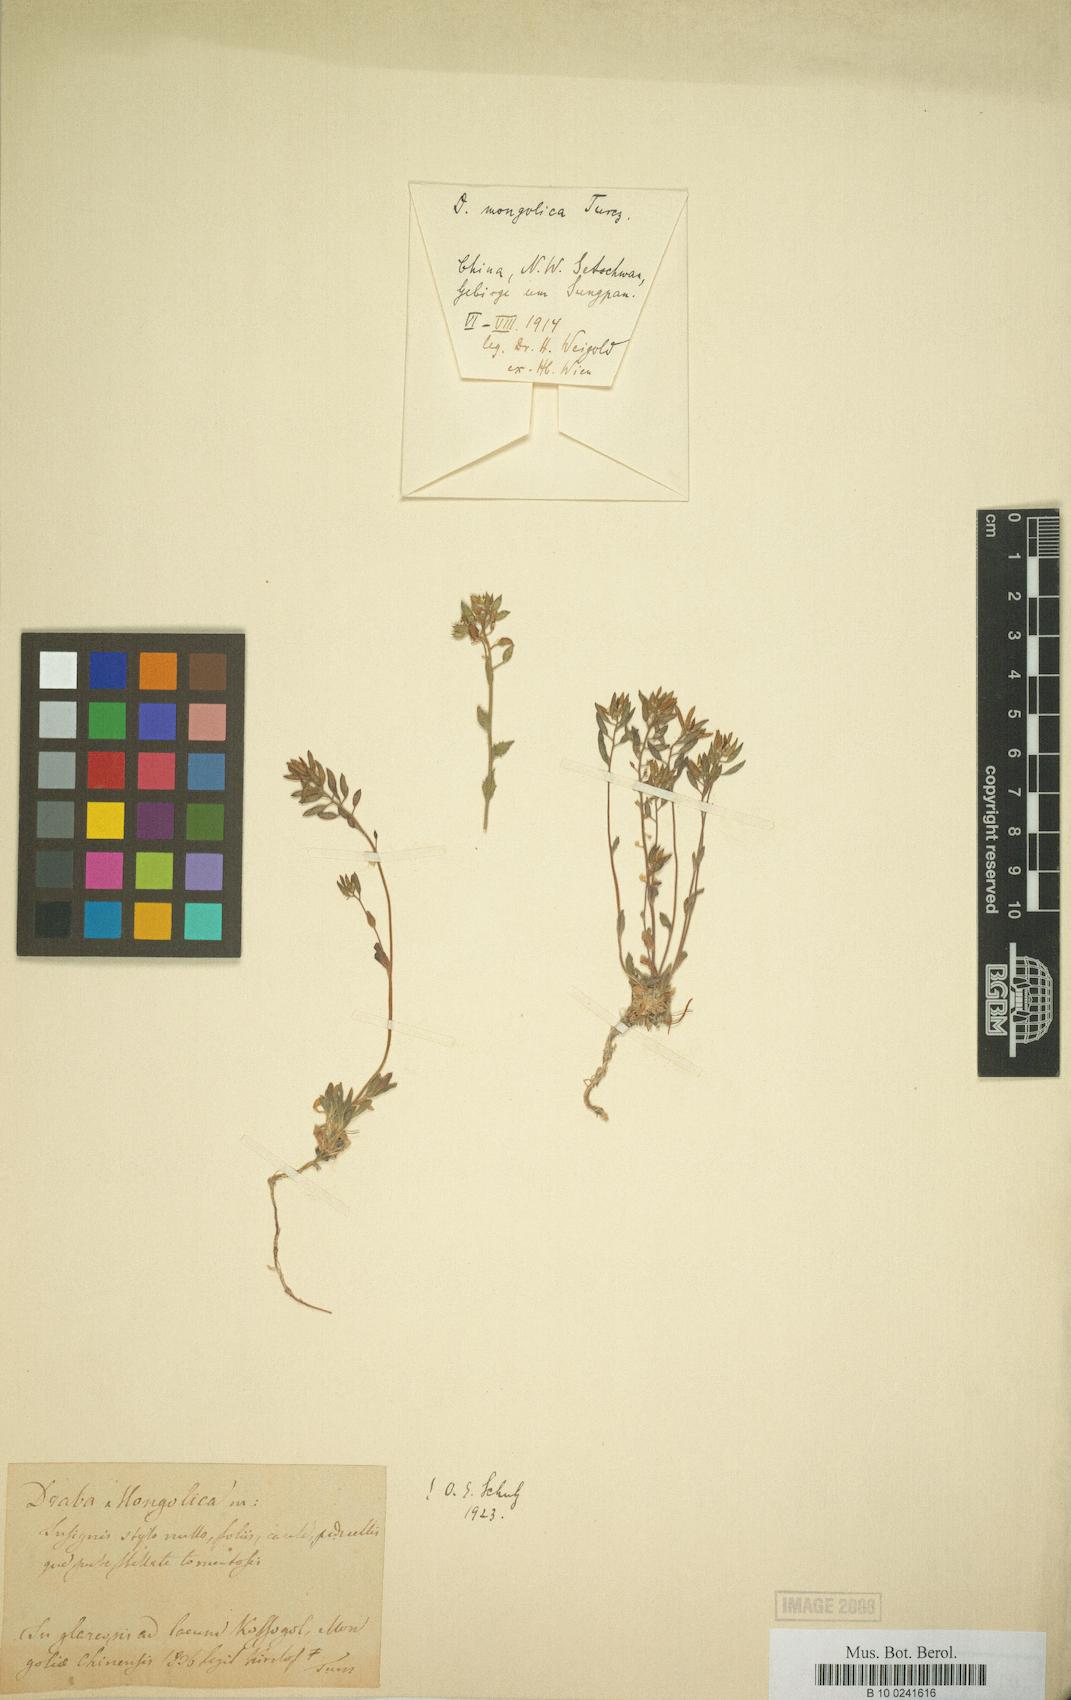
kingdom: Plantae
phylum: Tracheophyta
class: Magnoliopsida
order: Brassicales
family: Brassicaceae
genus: Draba
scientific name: Draba mongolica
